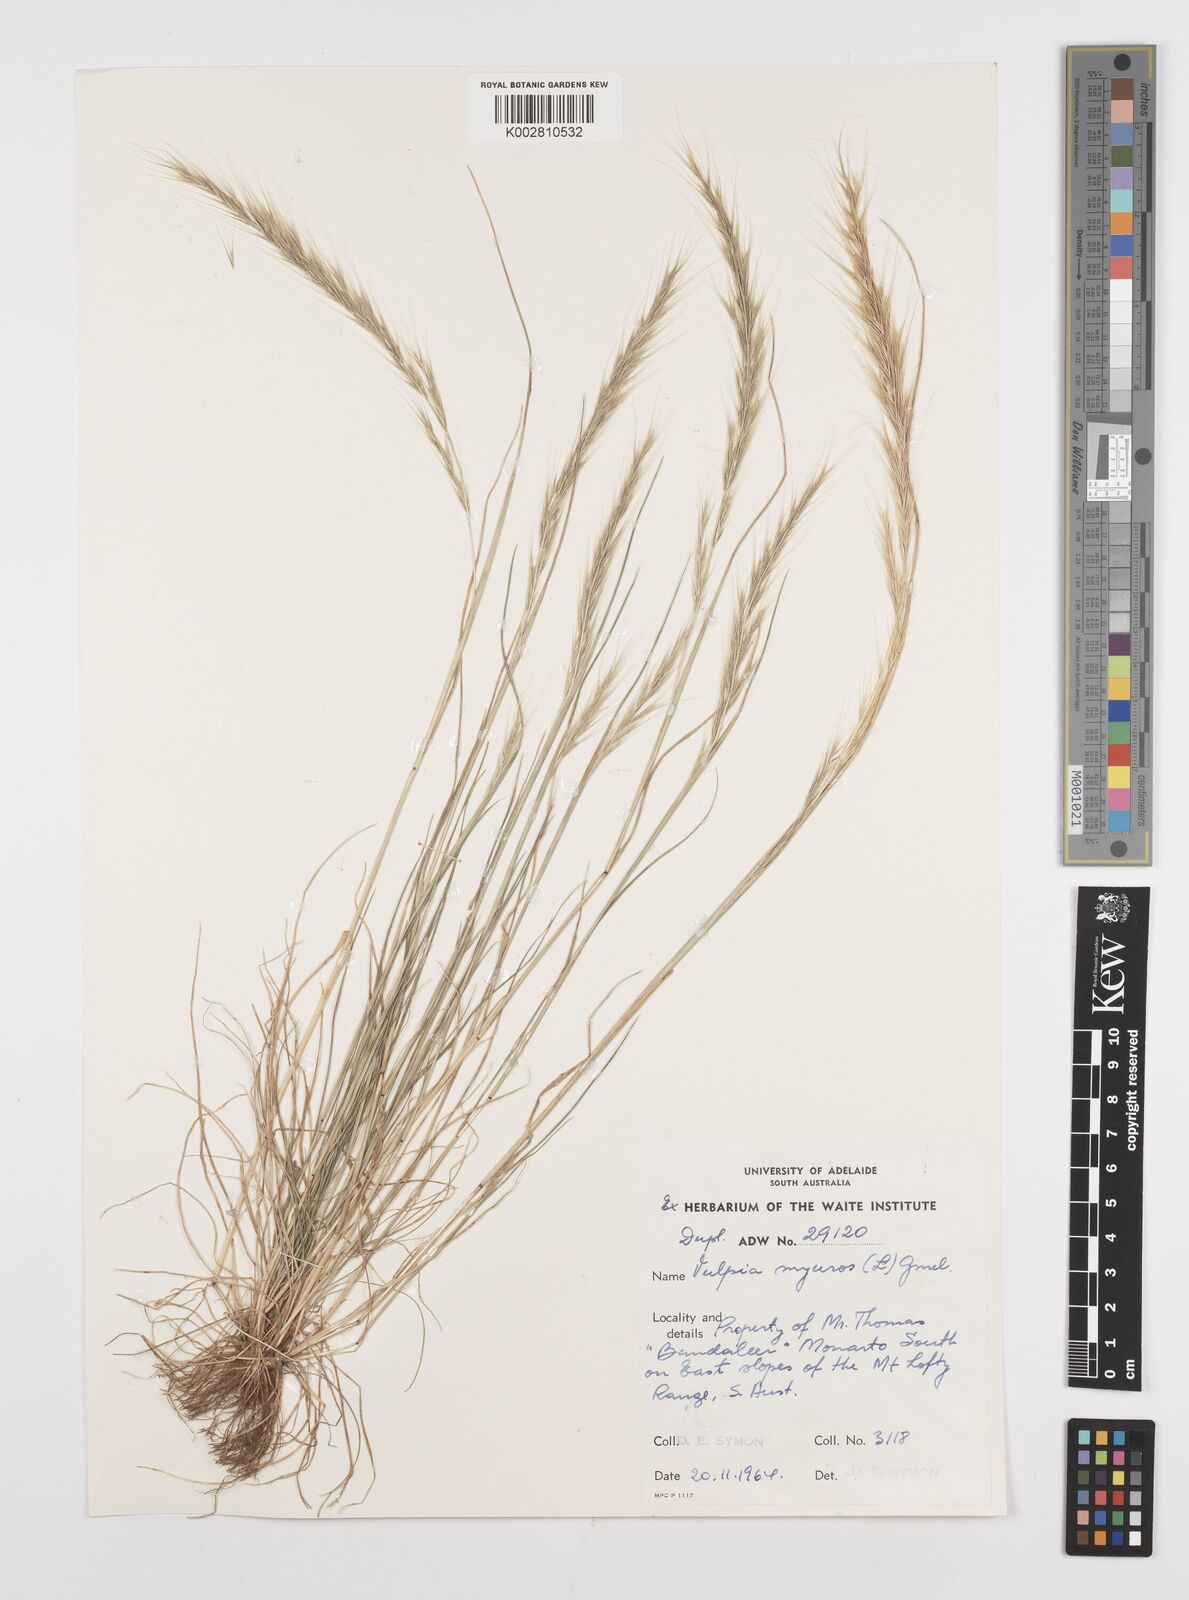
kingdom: Plantae
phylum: Tracheophyta
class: Liliopsida
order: Poales
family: Poaceae
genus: Festuca
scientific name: Festuca myuros
